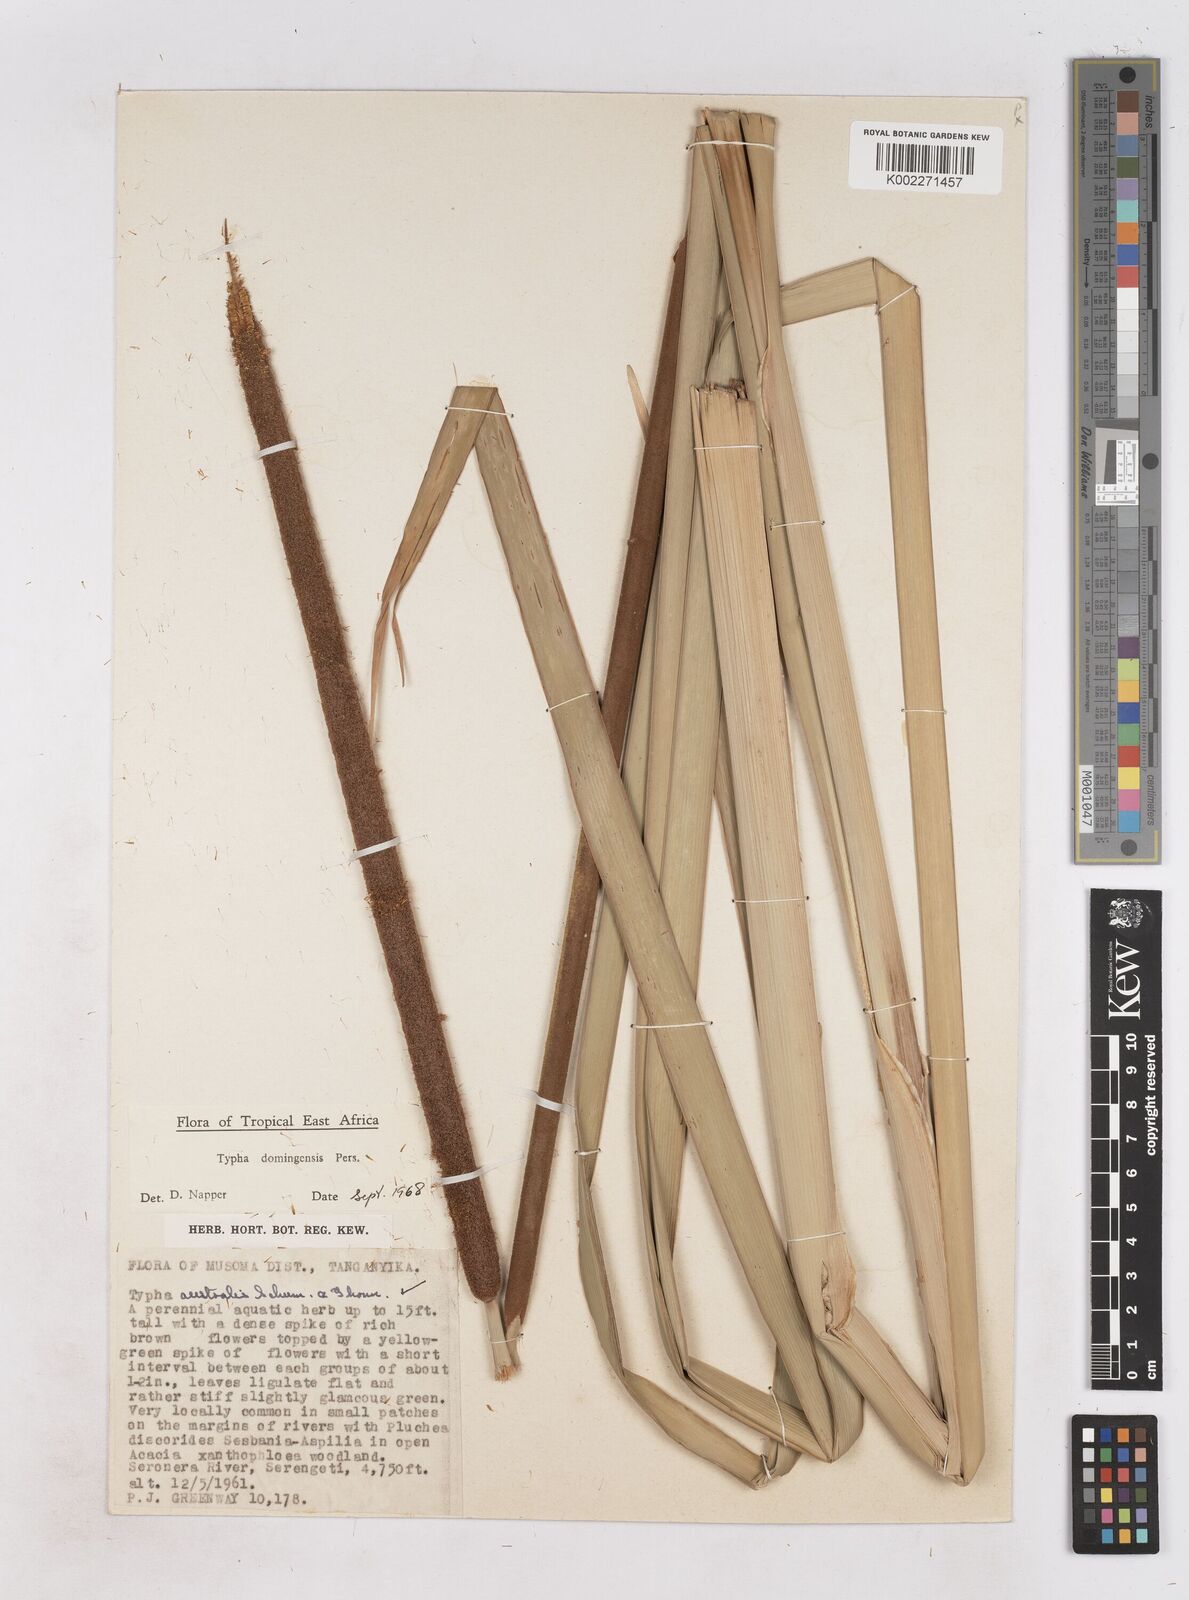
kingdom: Plantae
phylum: Tracheophyta
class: Liliopsida
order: Poales
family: Typhaceae
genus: Typha
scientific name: Typha domingensis
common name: Southern cattail
